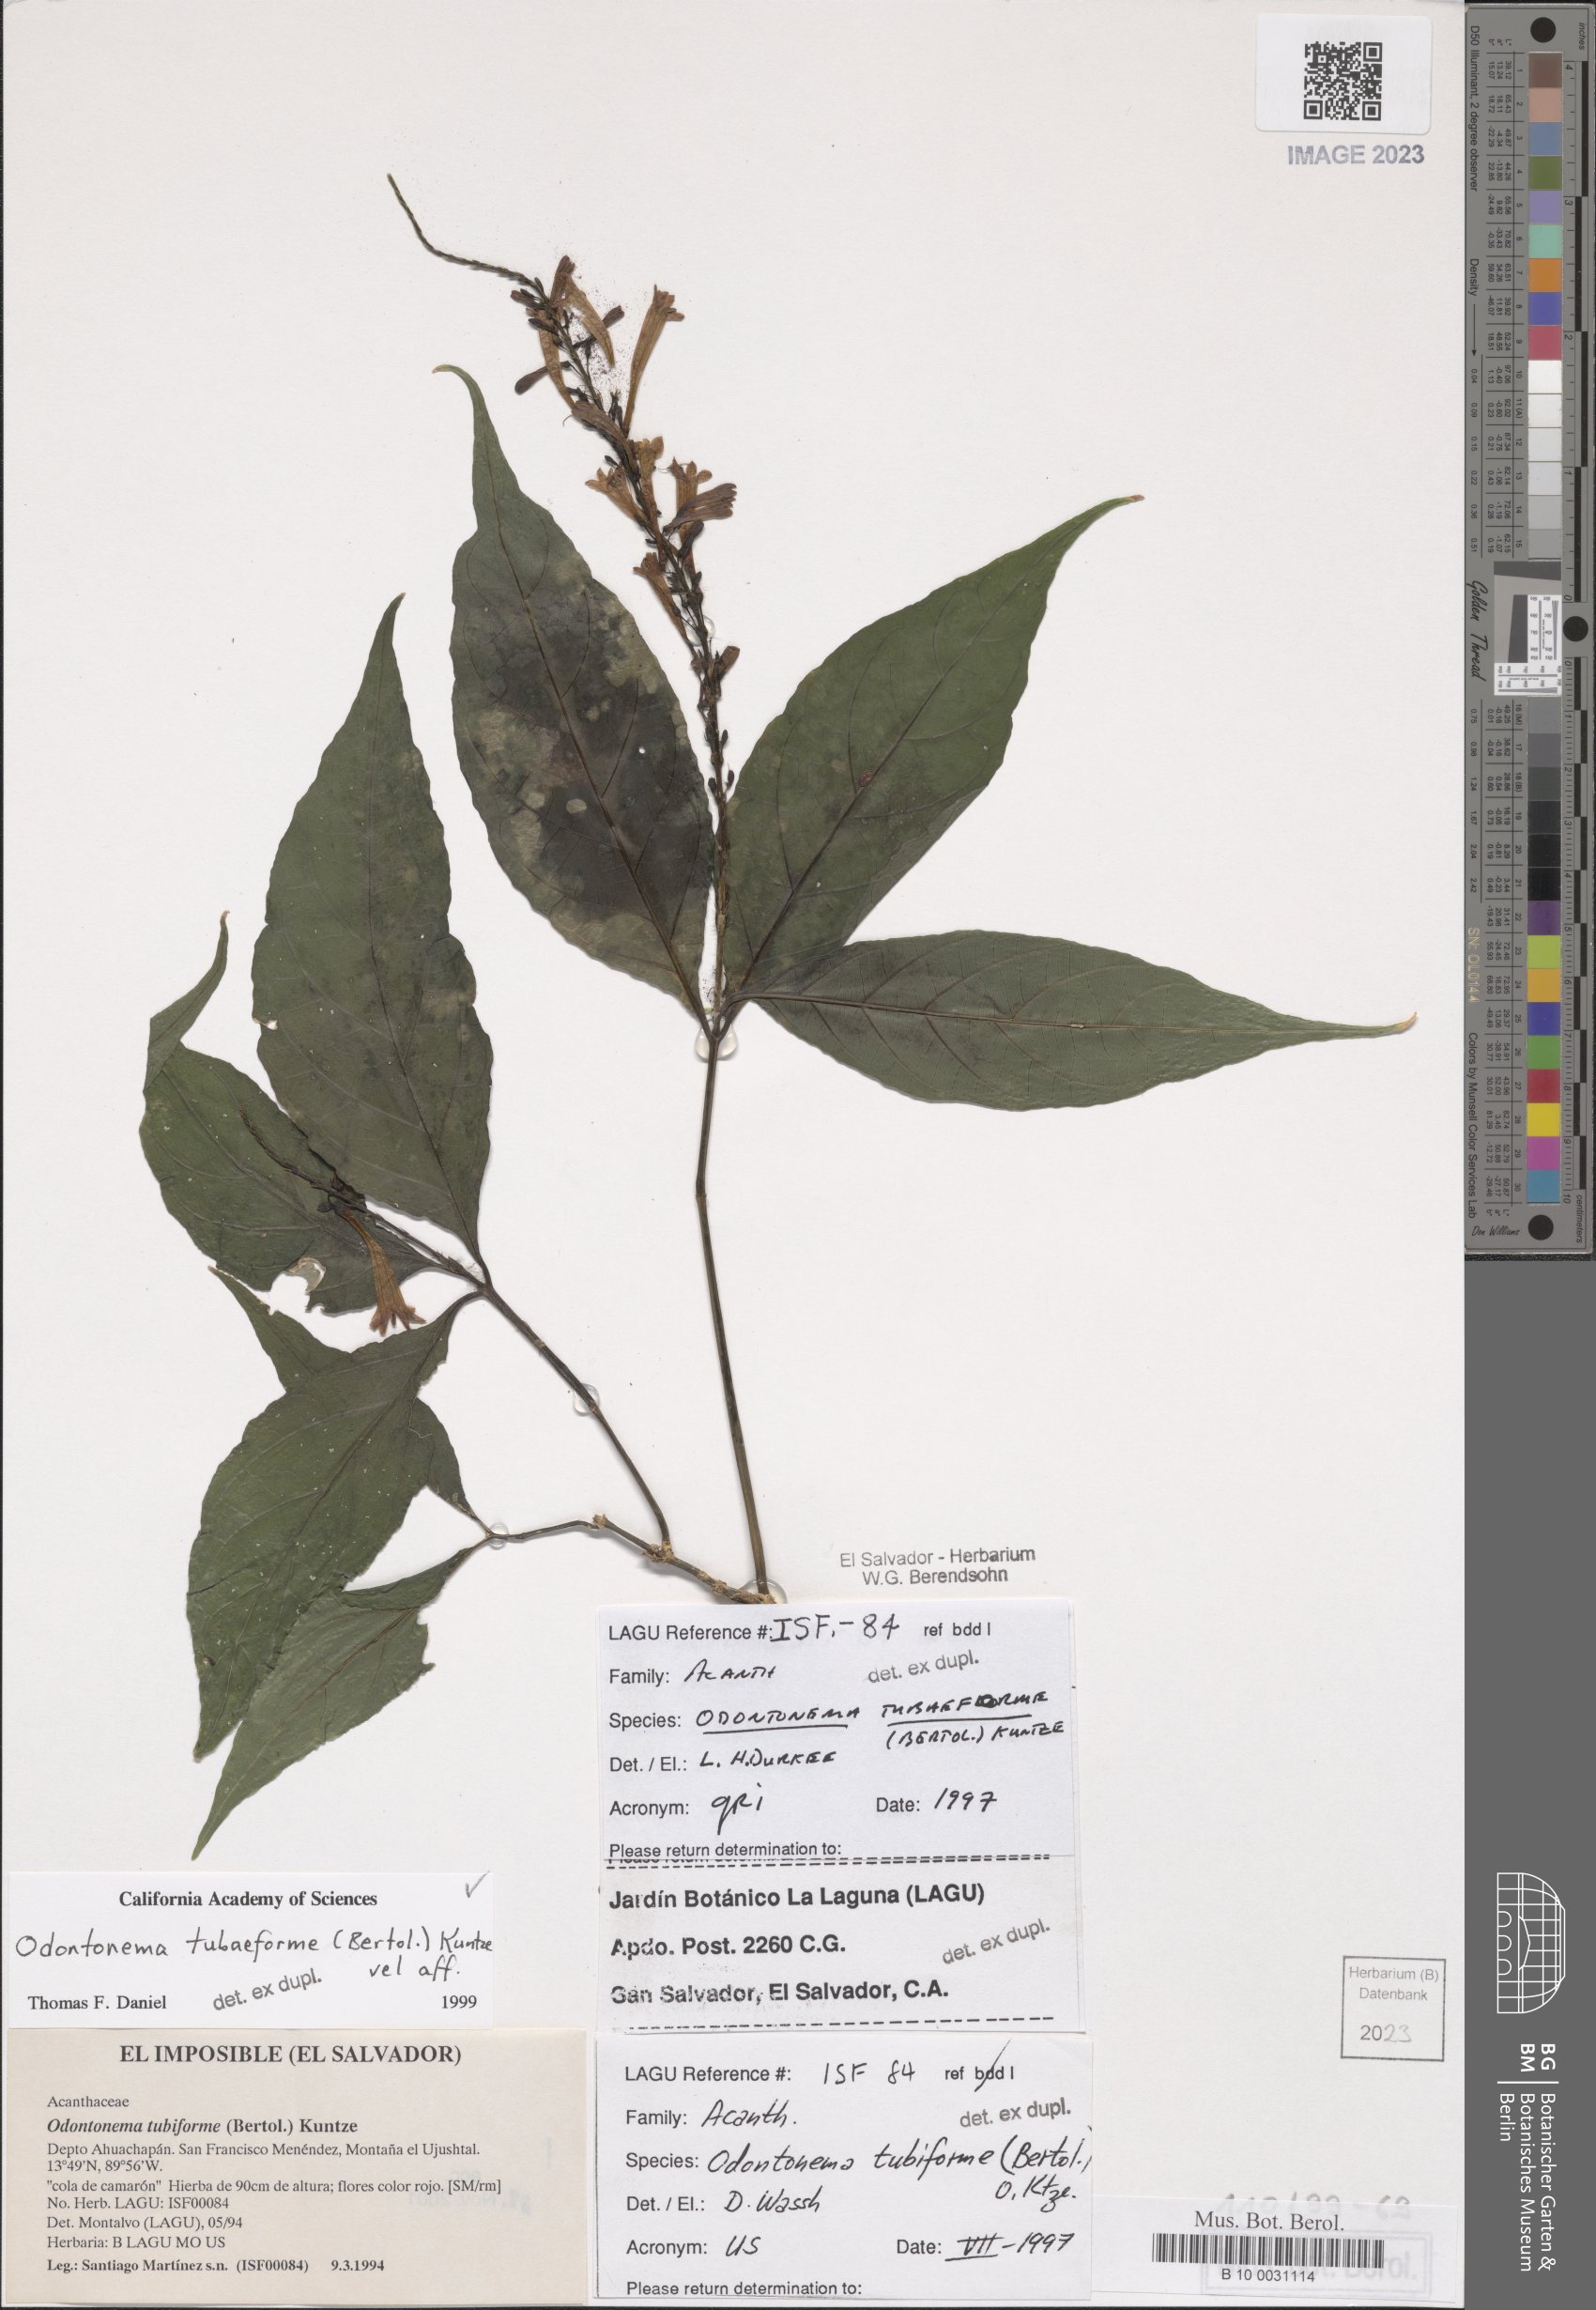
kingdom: Plantae
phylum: Tracheophyta
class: Magnoliopsida
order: Lamiales
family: Acanthaceae
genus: Odontonema
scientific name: Odontonema tubaeforme
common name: Firespike
